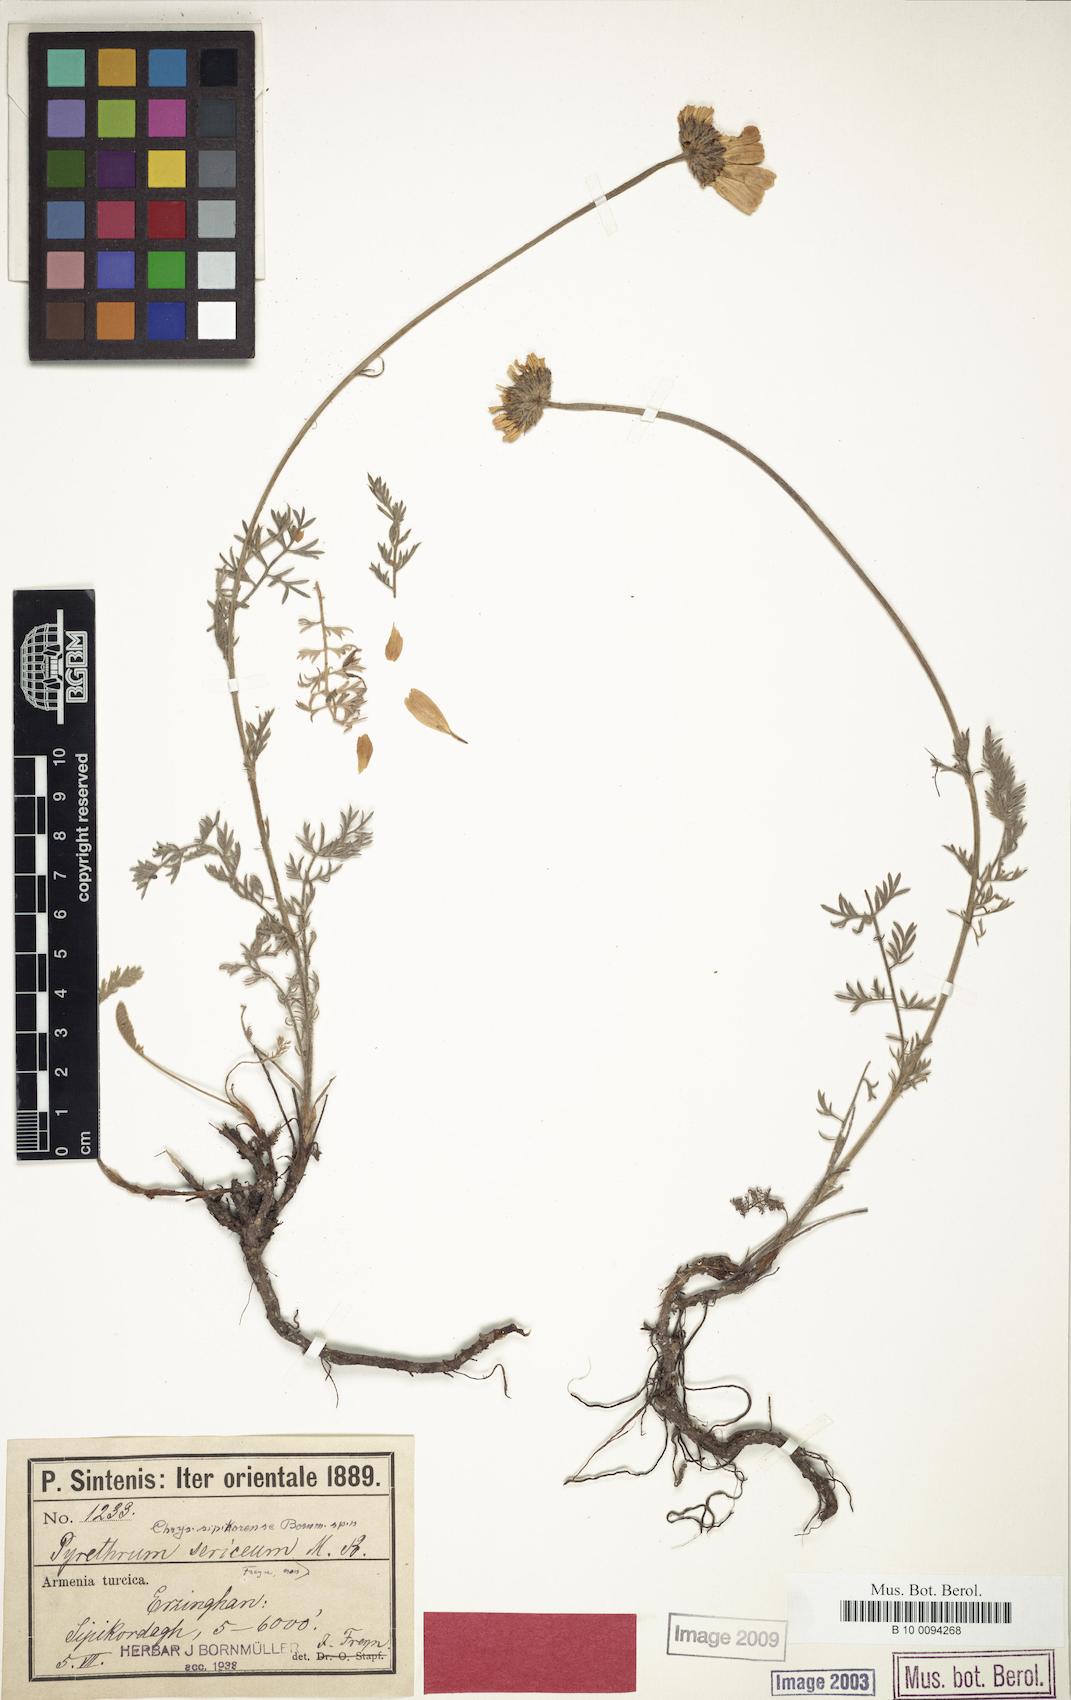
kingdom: Plantae
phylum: Tracheophyta
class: Magnoliopsida
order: Asterales
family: Asteraceae
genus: Tanacetum
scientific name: Tanacetum sipikorense
